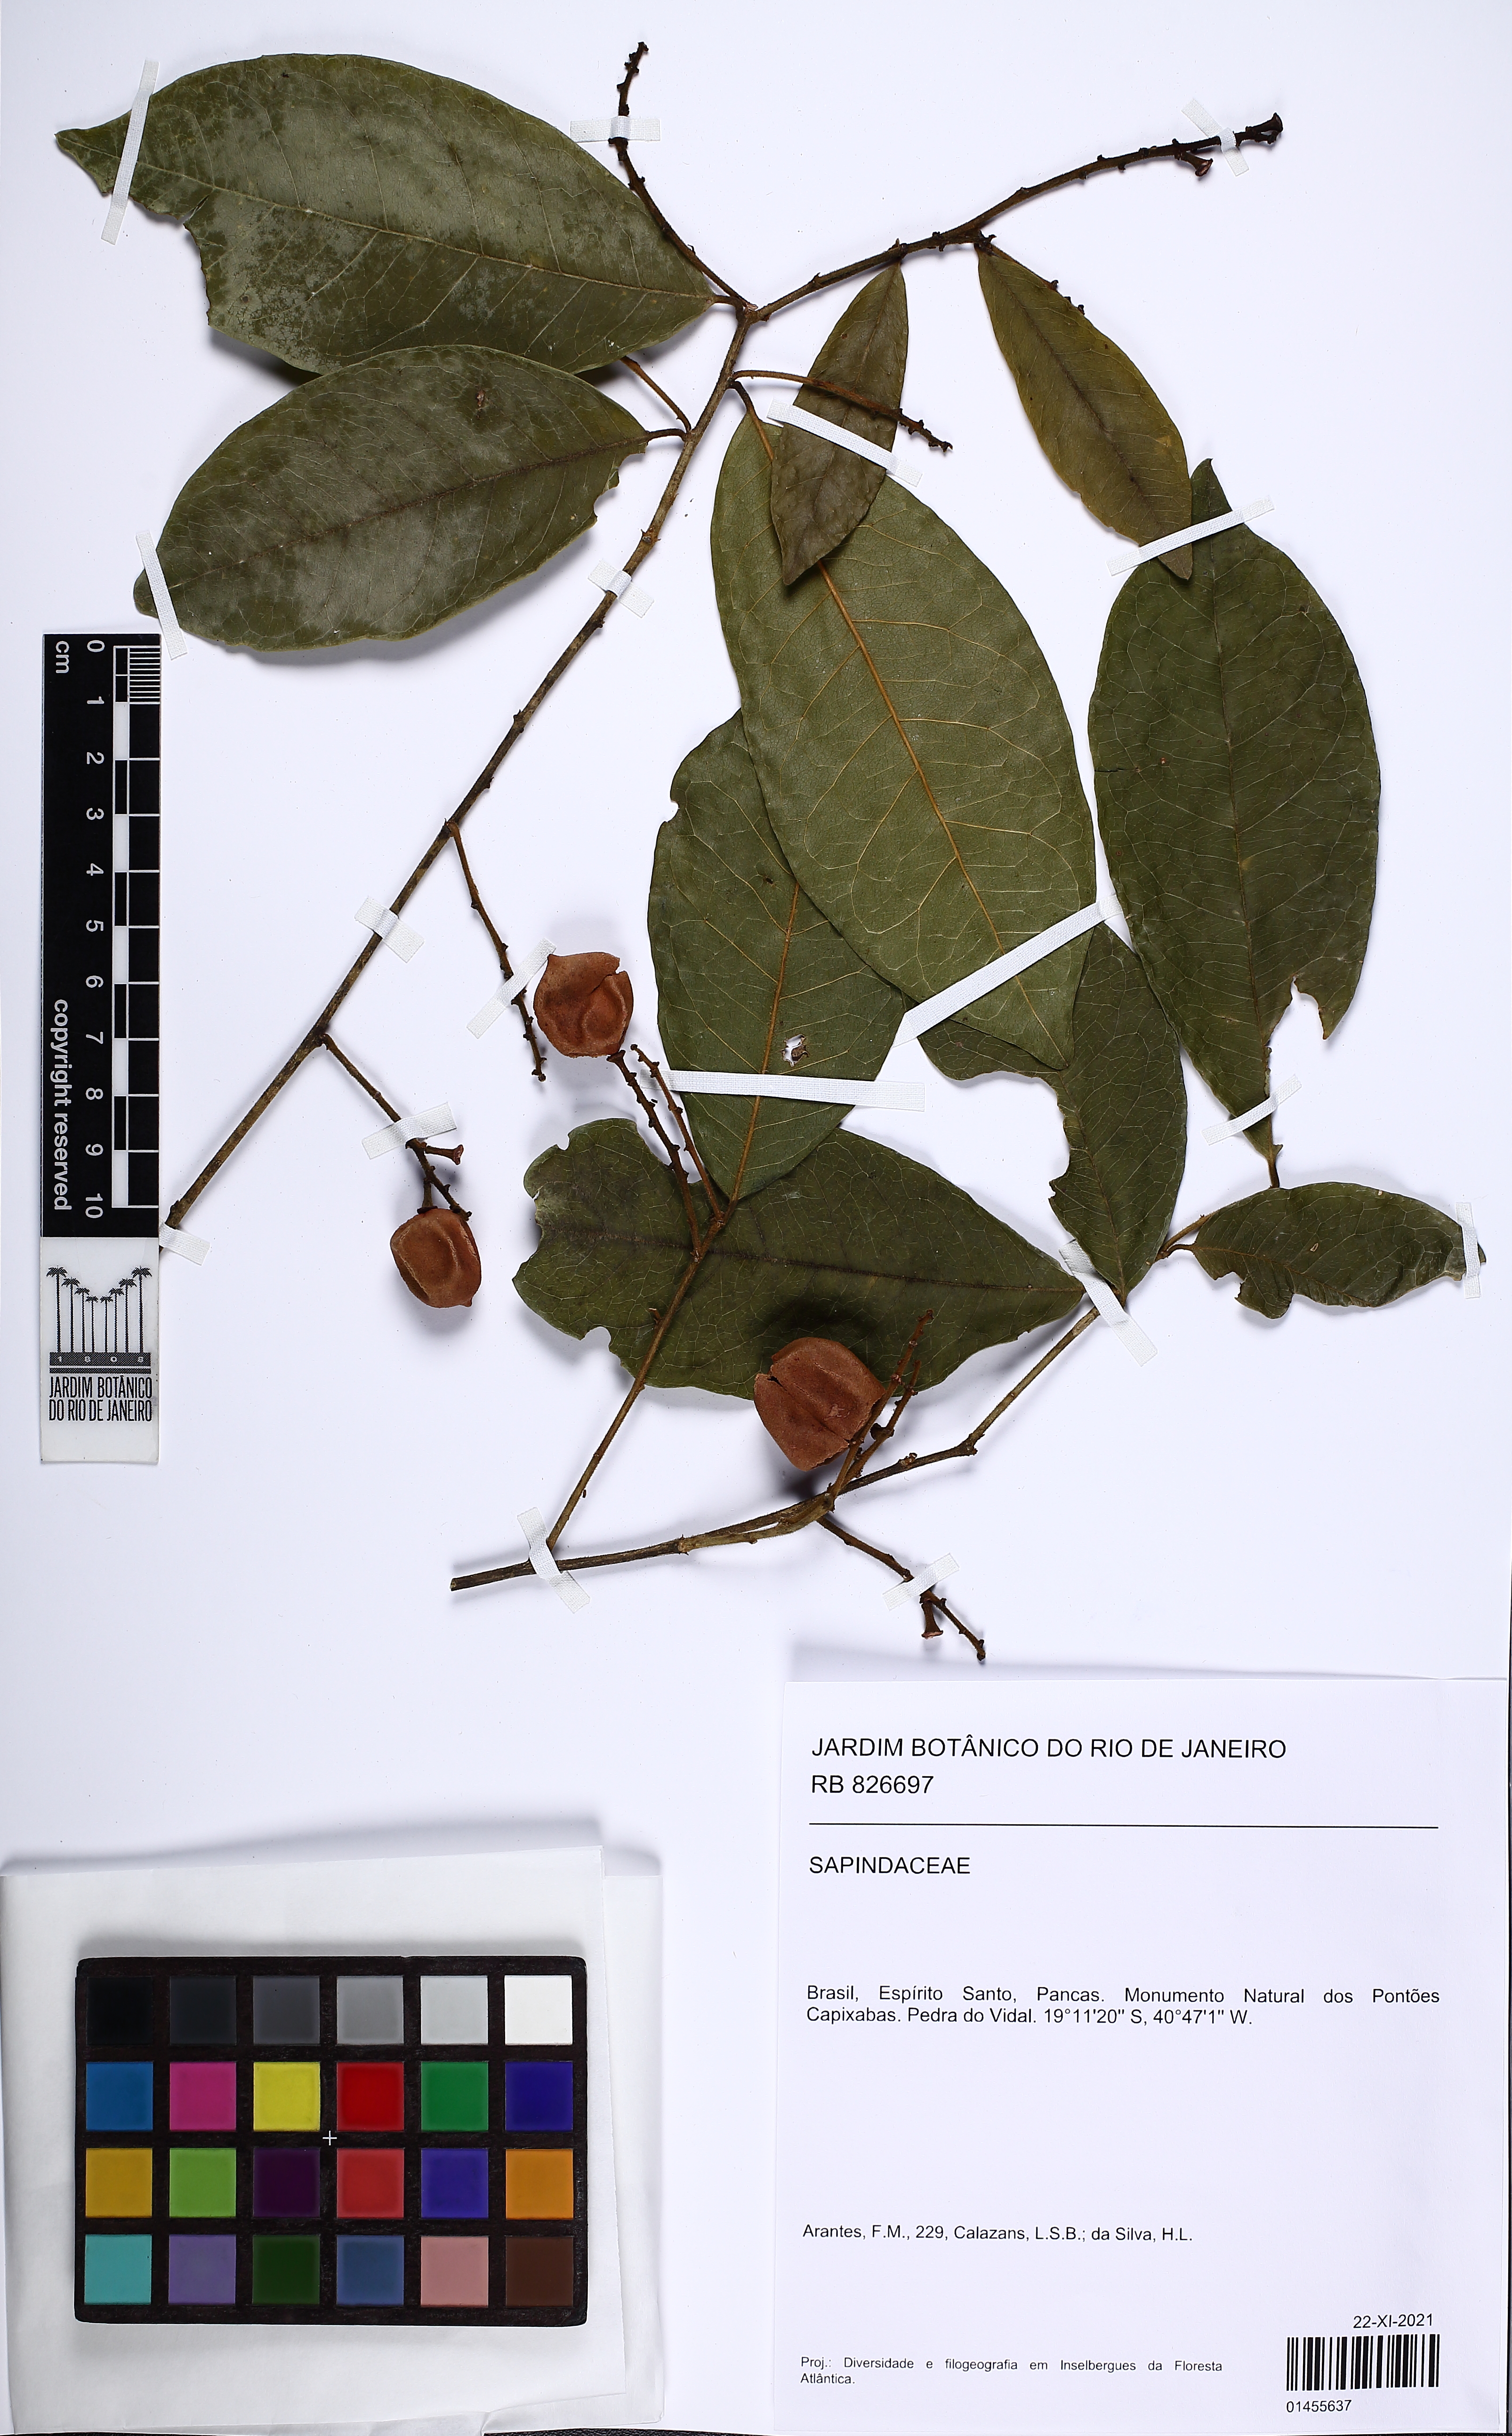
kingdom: Plantae
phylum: Tracheophyta
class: Magnoliopsida
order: Sapindales
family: Sapindaceae
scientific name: Sapindaceae
